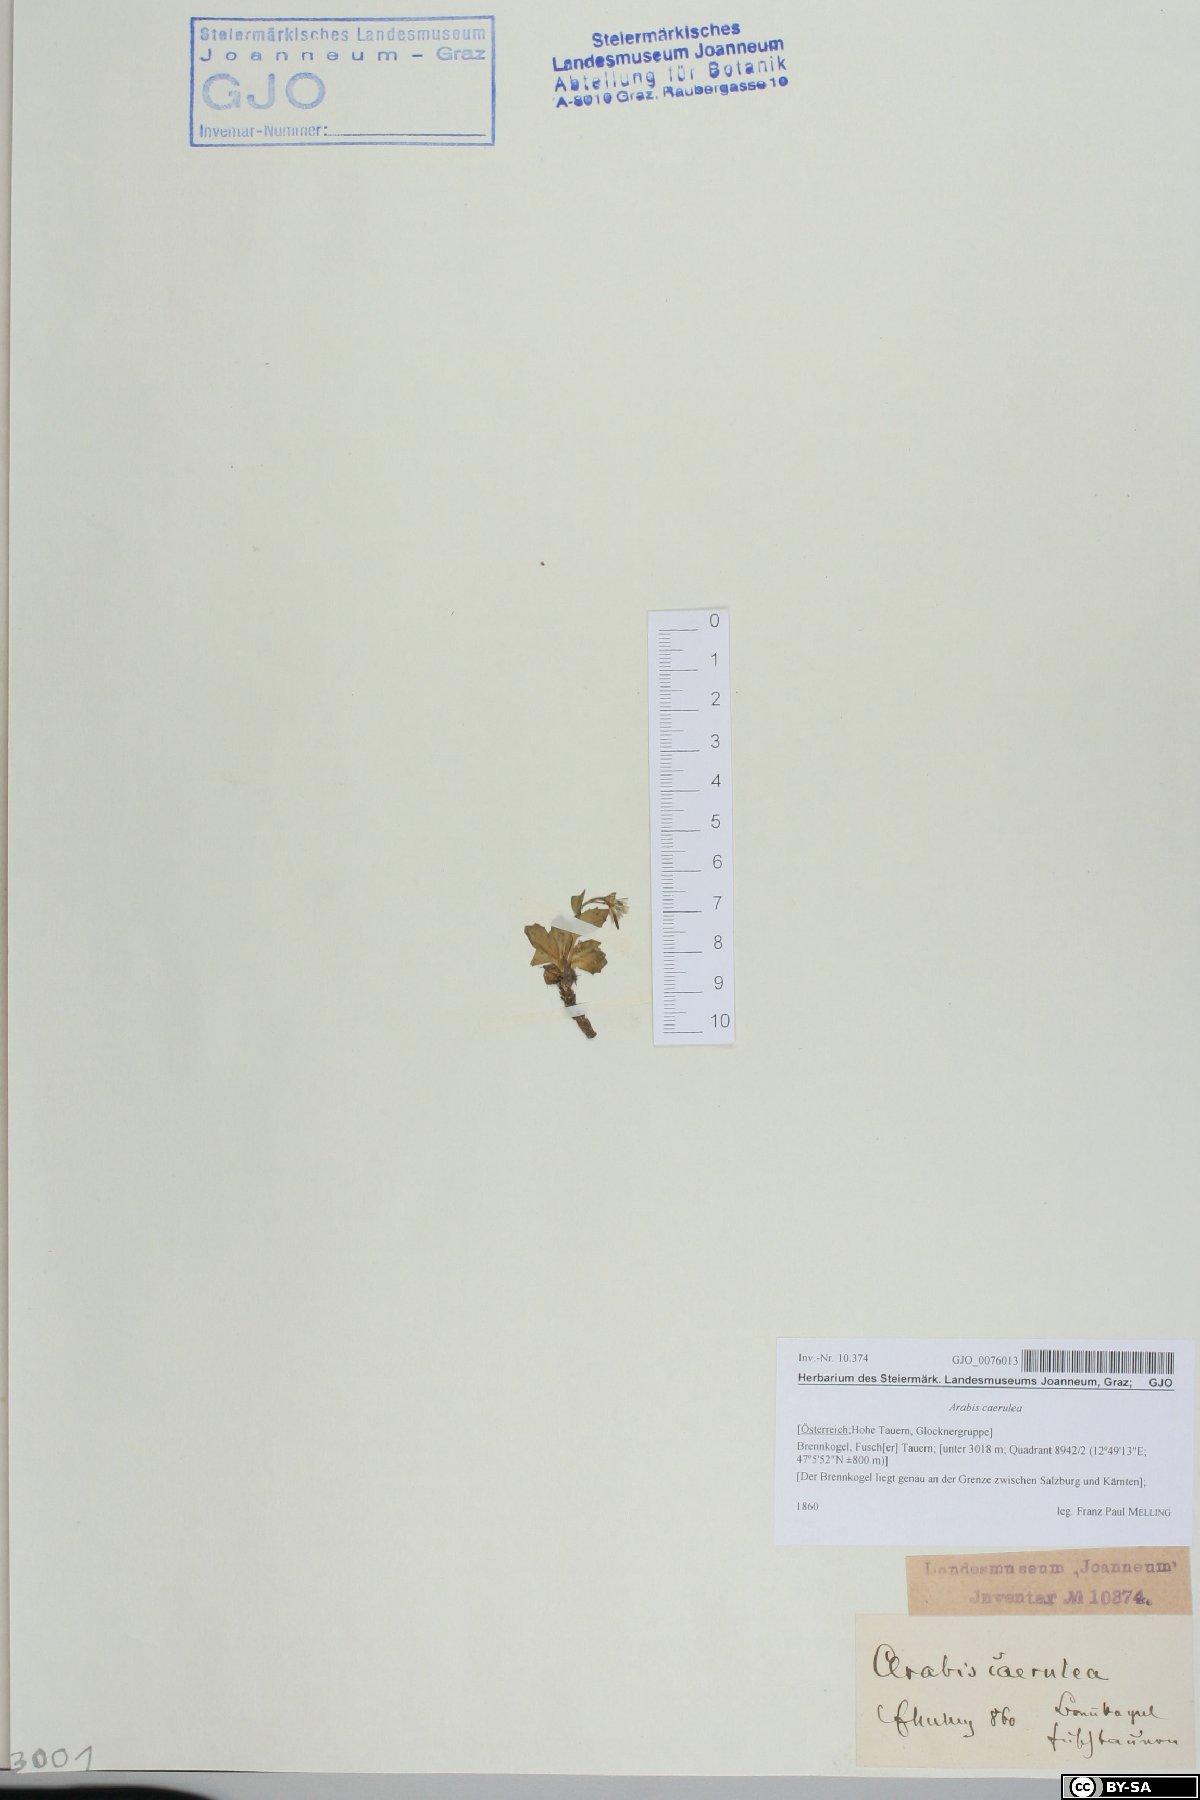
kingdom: Plantae
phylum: Tracheophyta
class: Magnoliopsida
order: Brassicales
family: Brassicaceae
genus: Arabis
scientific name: Arabis caerulea
